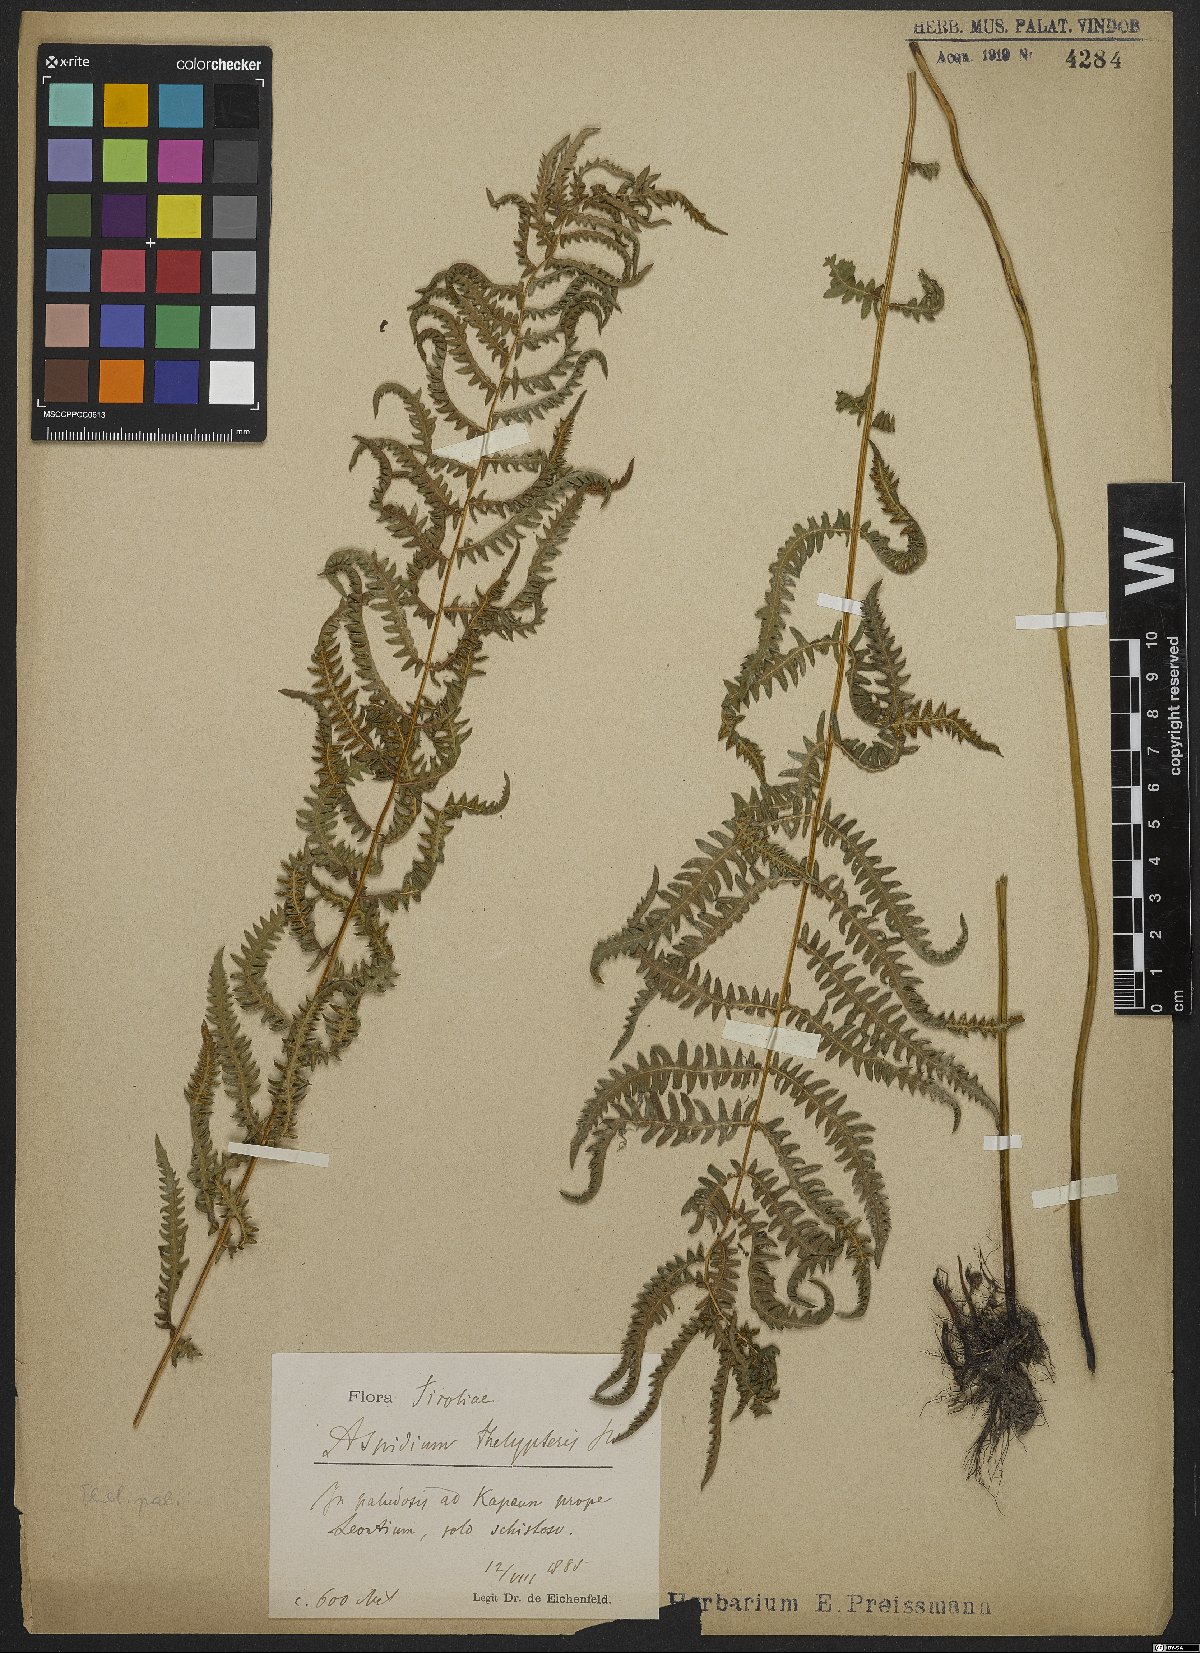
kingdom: Plantae
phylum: Tracheophyta
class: Polypodiopsida
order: Polypodiales
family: Thelypteridaceae
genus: Thelypteris
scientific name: Thelypteris palustris
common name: Marsh fern
